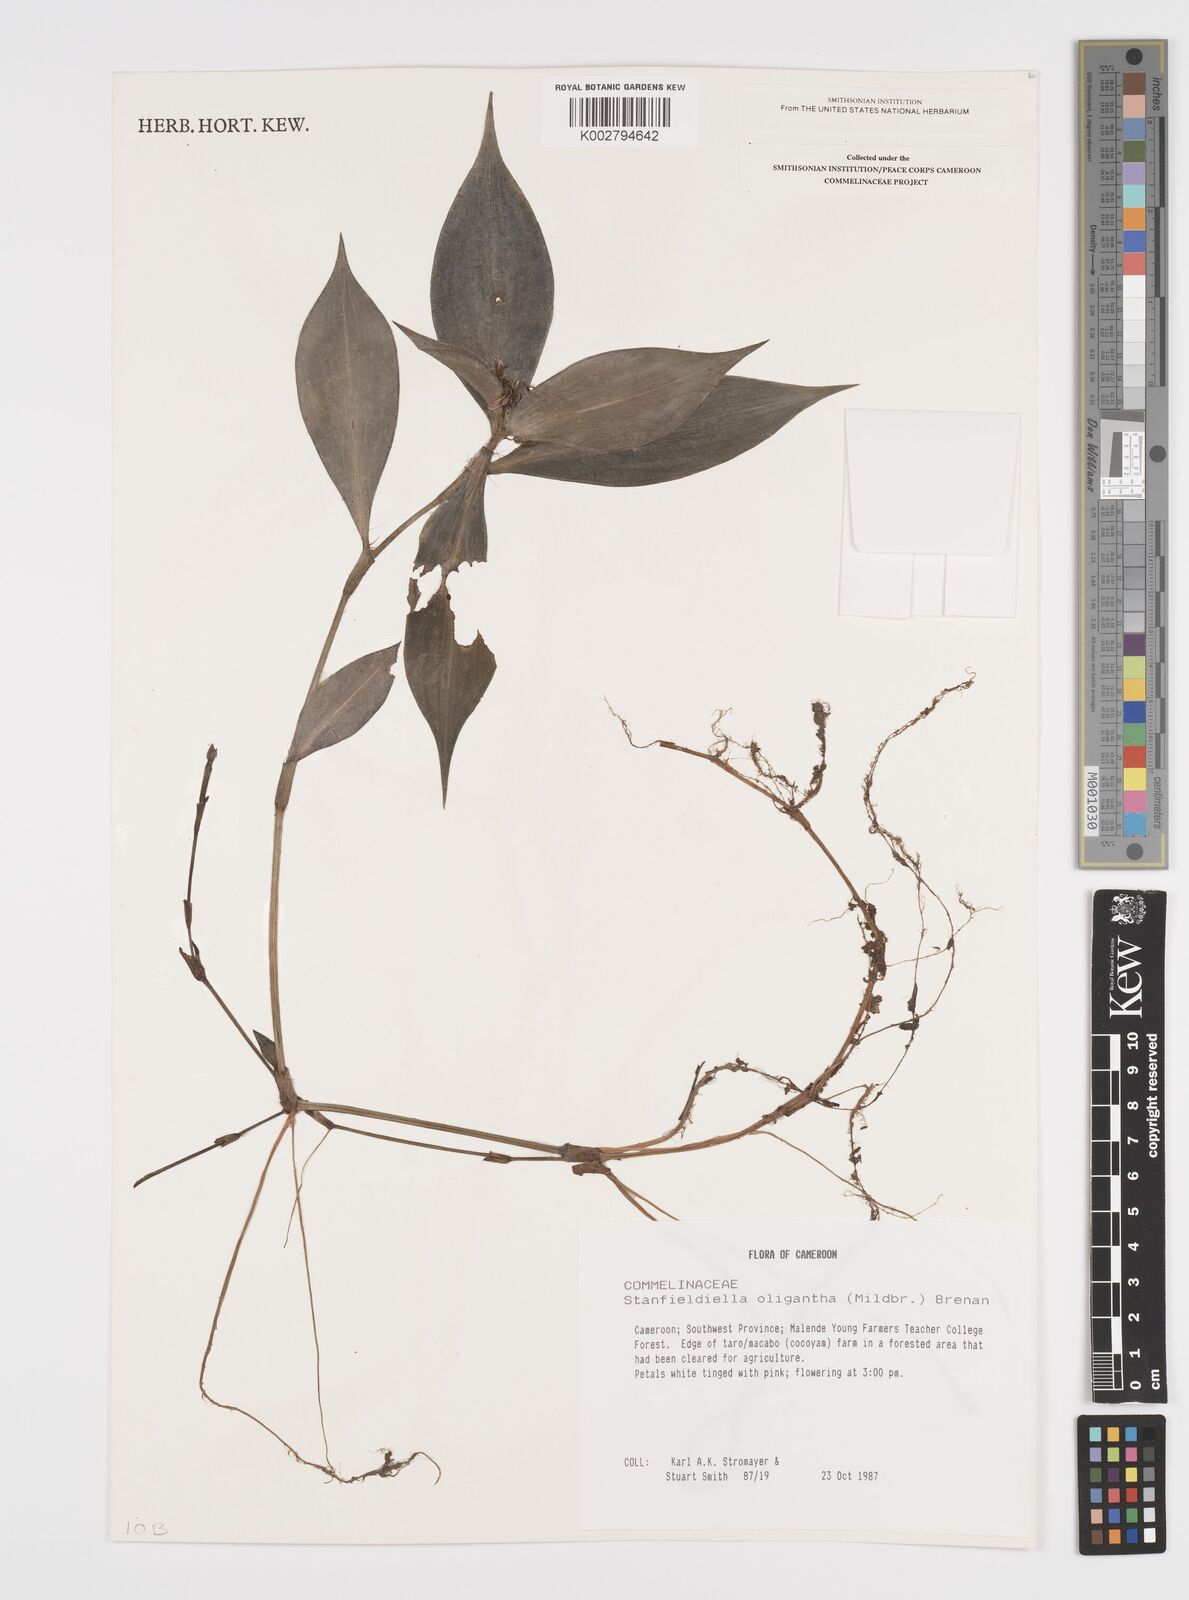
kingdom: Plantae
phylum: Tracheophyta
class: Liliopsida
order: Commelinales
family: Commelinaceae
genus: Stanfieldiella
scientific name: Stanfieldiella oligantha
